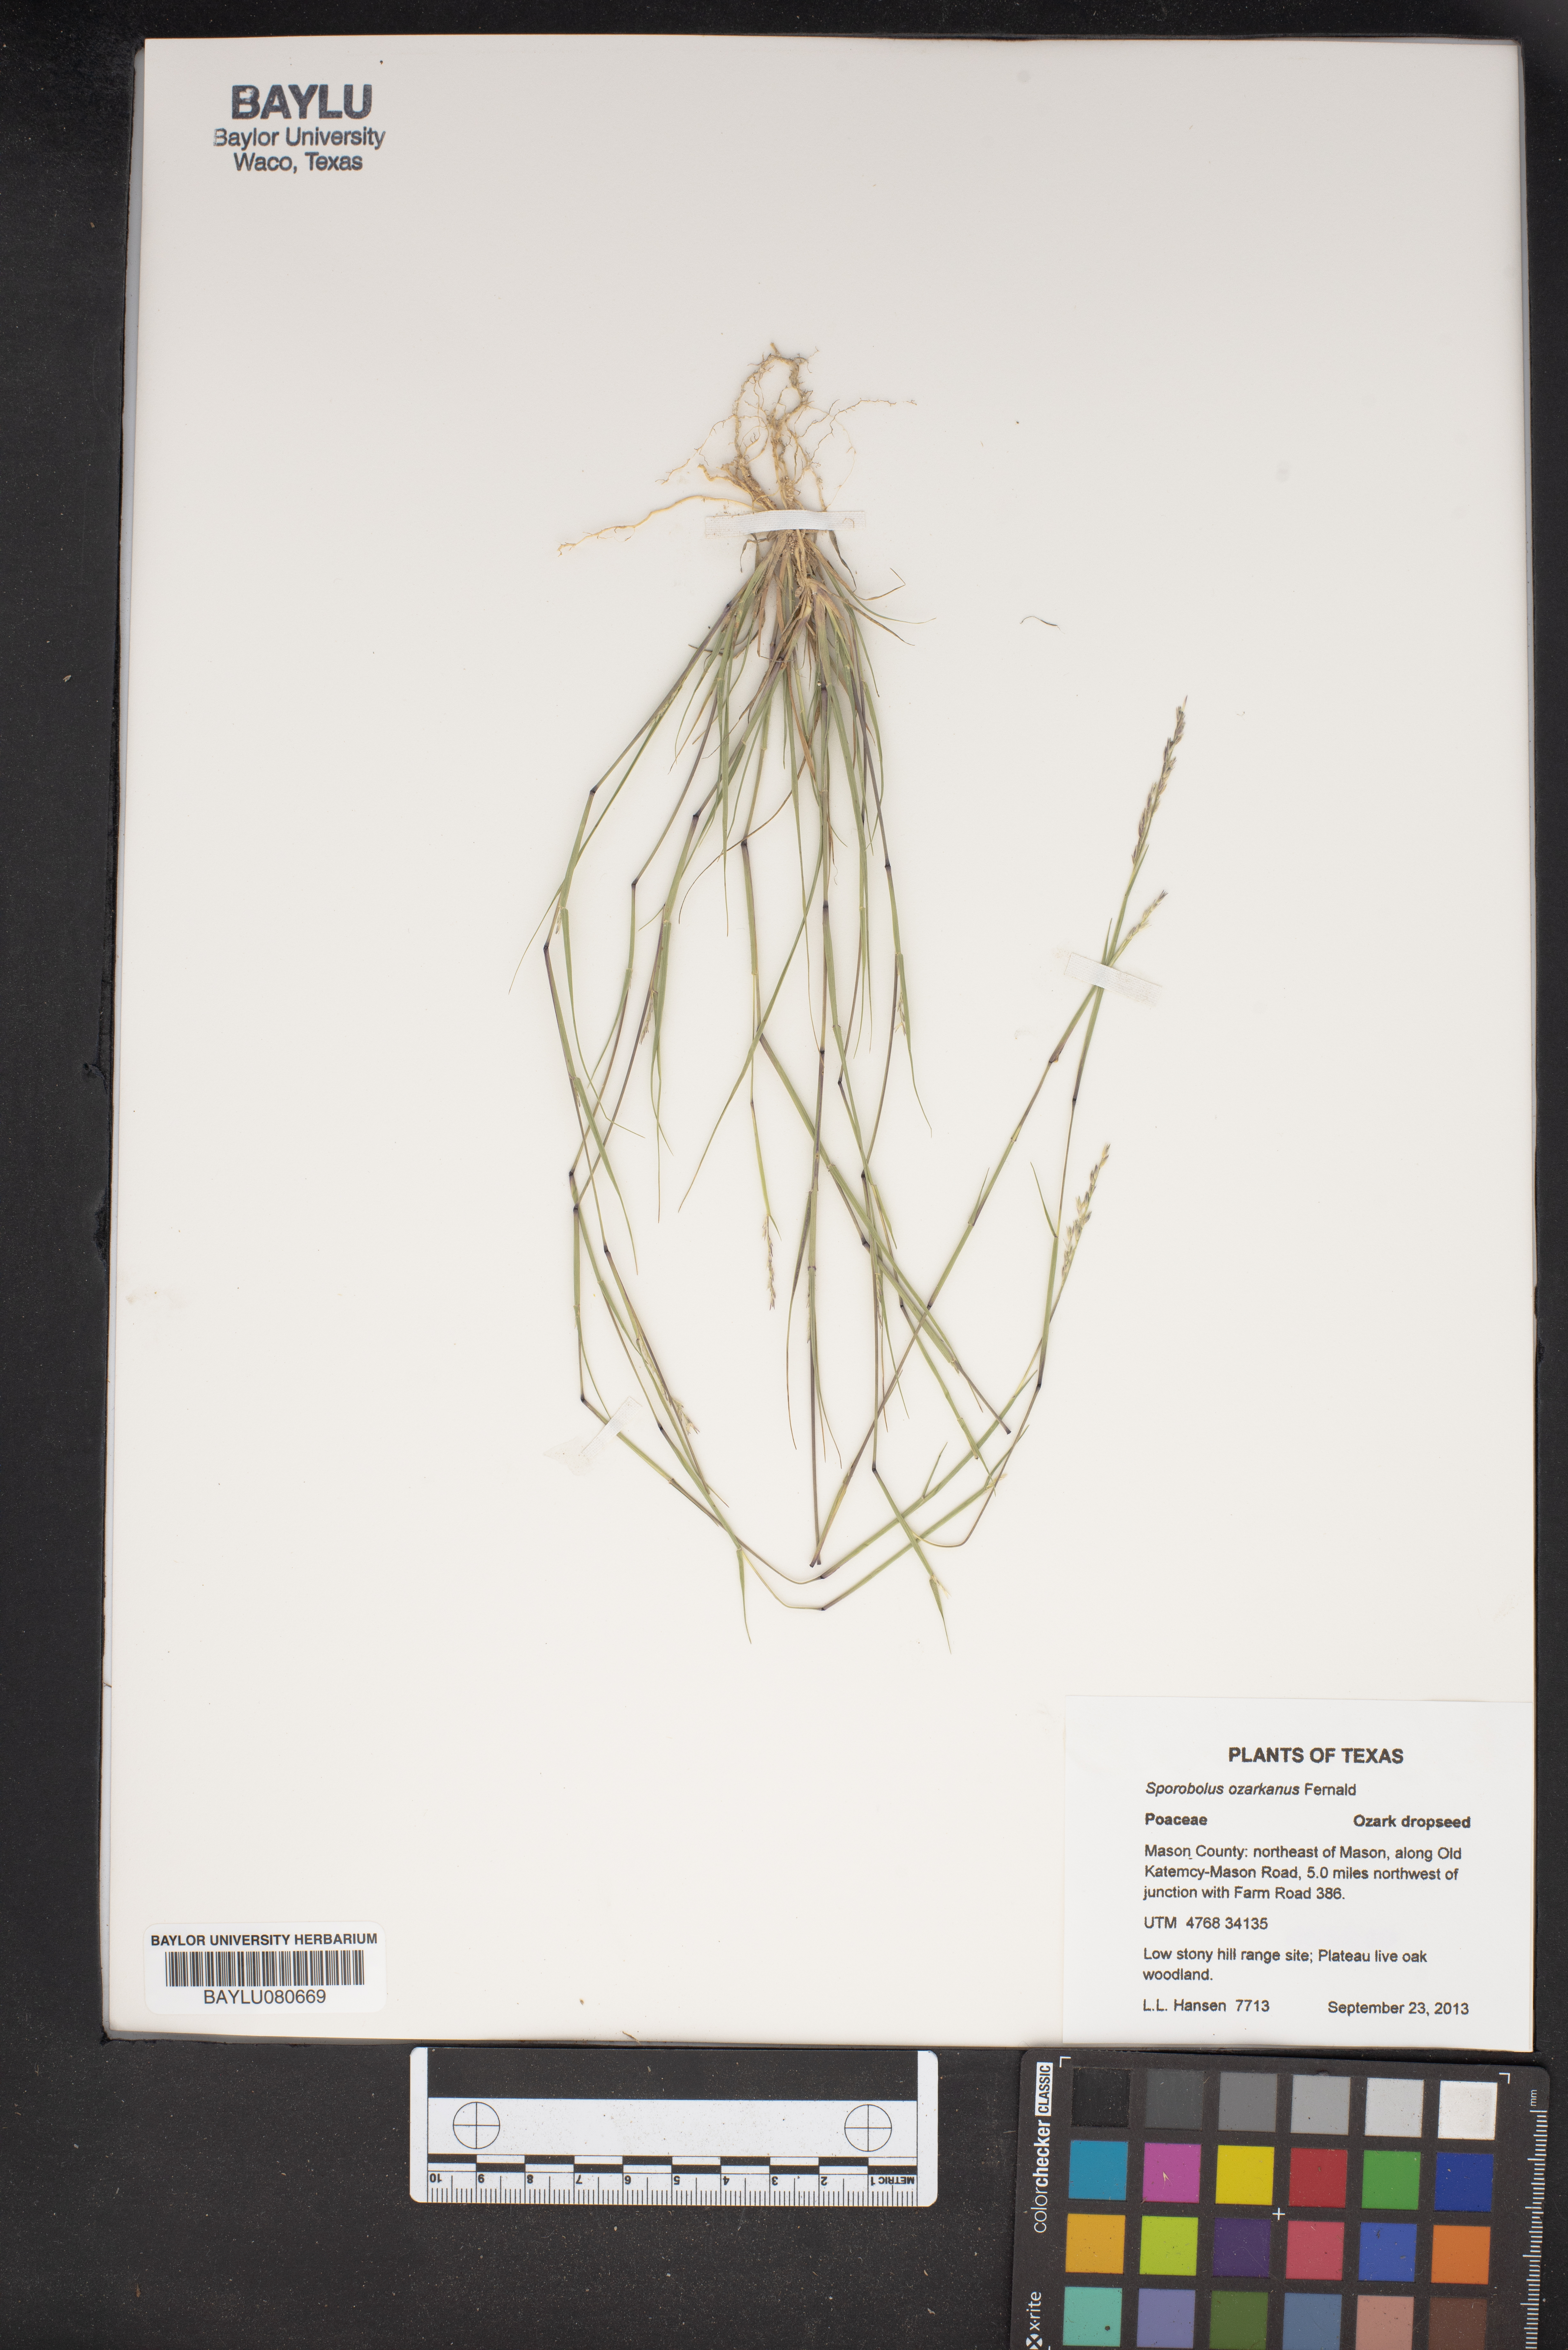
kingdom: Plantae
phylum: Tracheophyta
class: Liliopsida
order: Poales
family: Poaceae
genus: Sporobolus
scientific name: Sporobolus neglectus
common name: Annual dropseed
